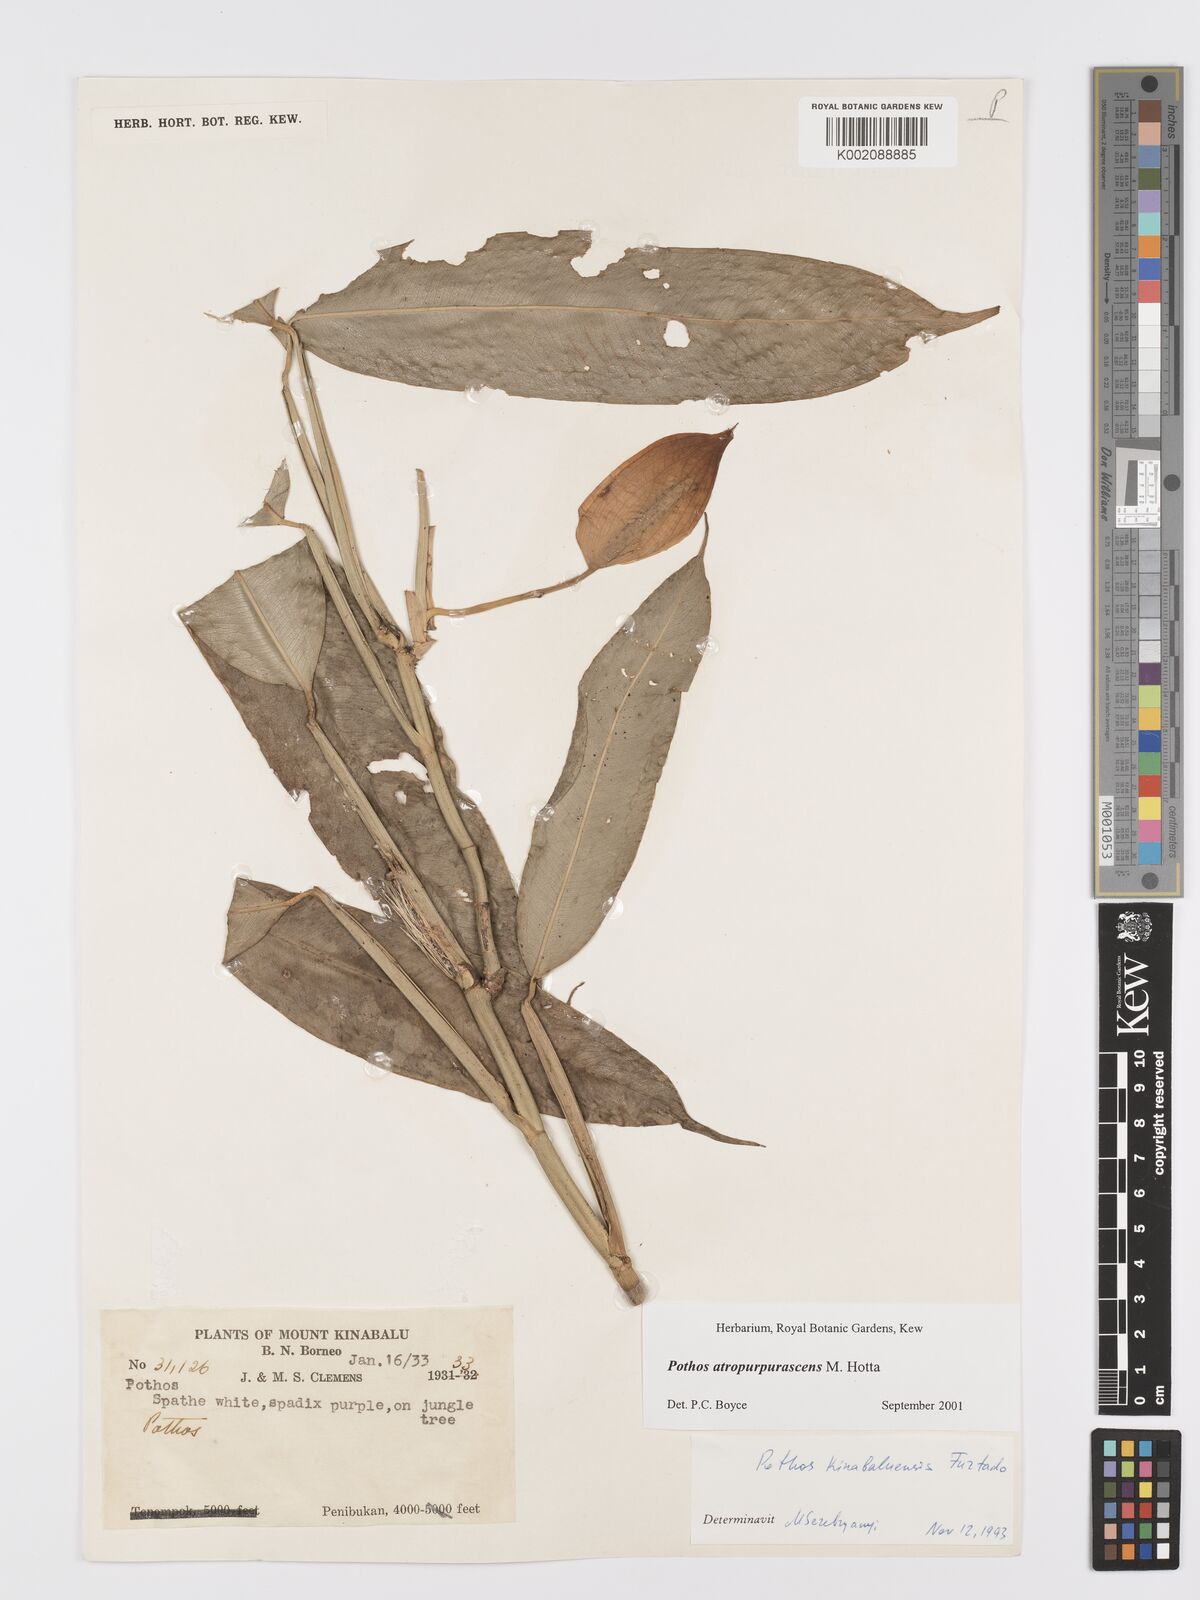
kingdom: Plantae
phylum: Tracheophyta
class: Liliopsida
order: Alismatales
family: Araceae
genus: Pothos
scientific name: Pothos atropurpurascens
